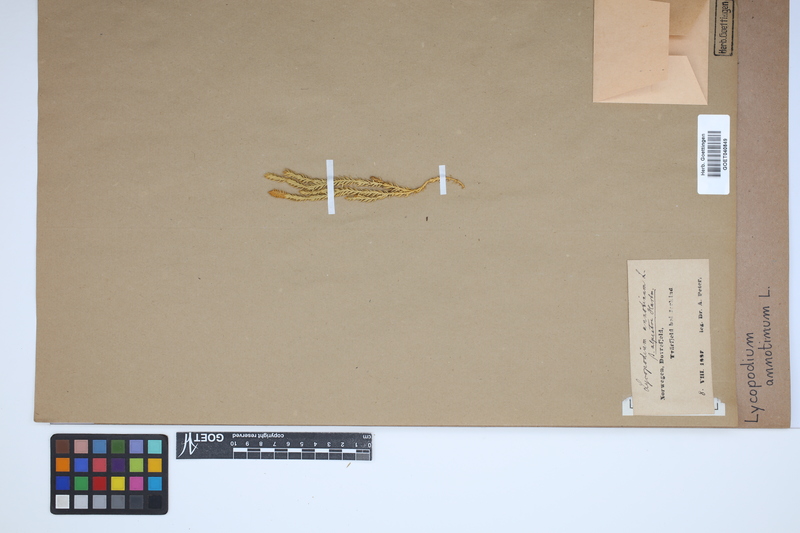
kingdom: Plantae
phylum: Tracheophyta
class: Lycopodiopsida
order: Lycopodiales
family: Lycopodiaceae
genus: Spinulum
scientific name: Spinulum annotinum
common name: Interrupted club-moss
